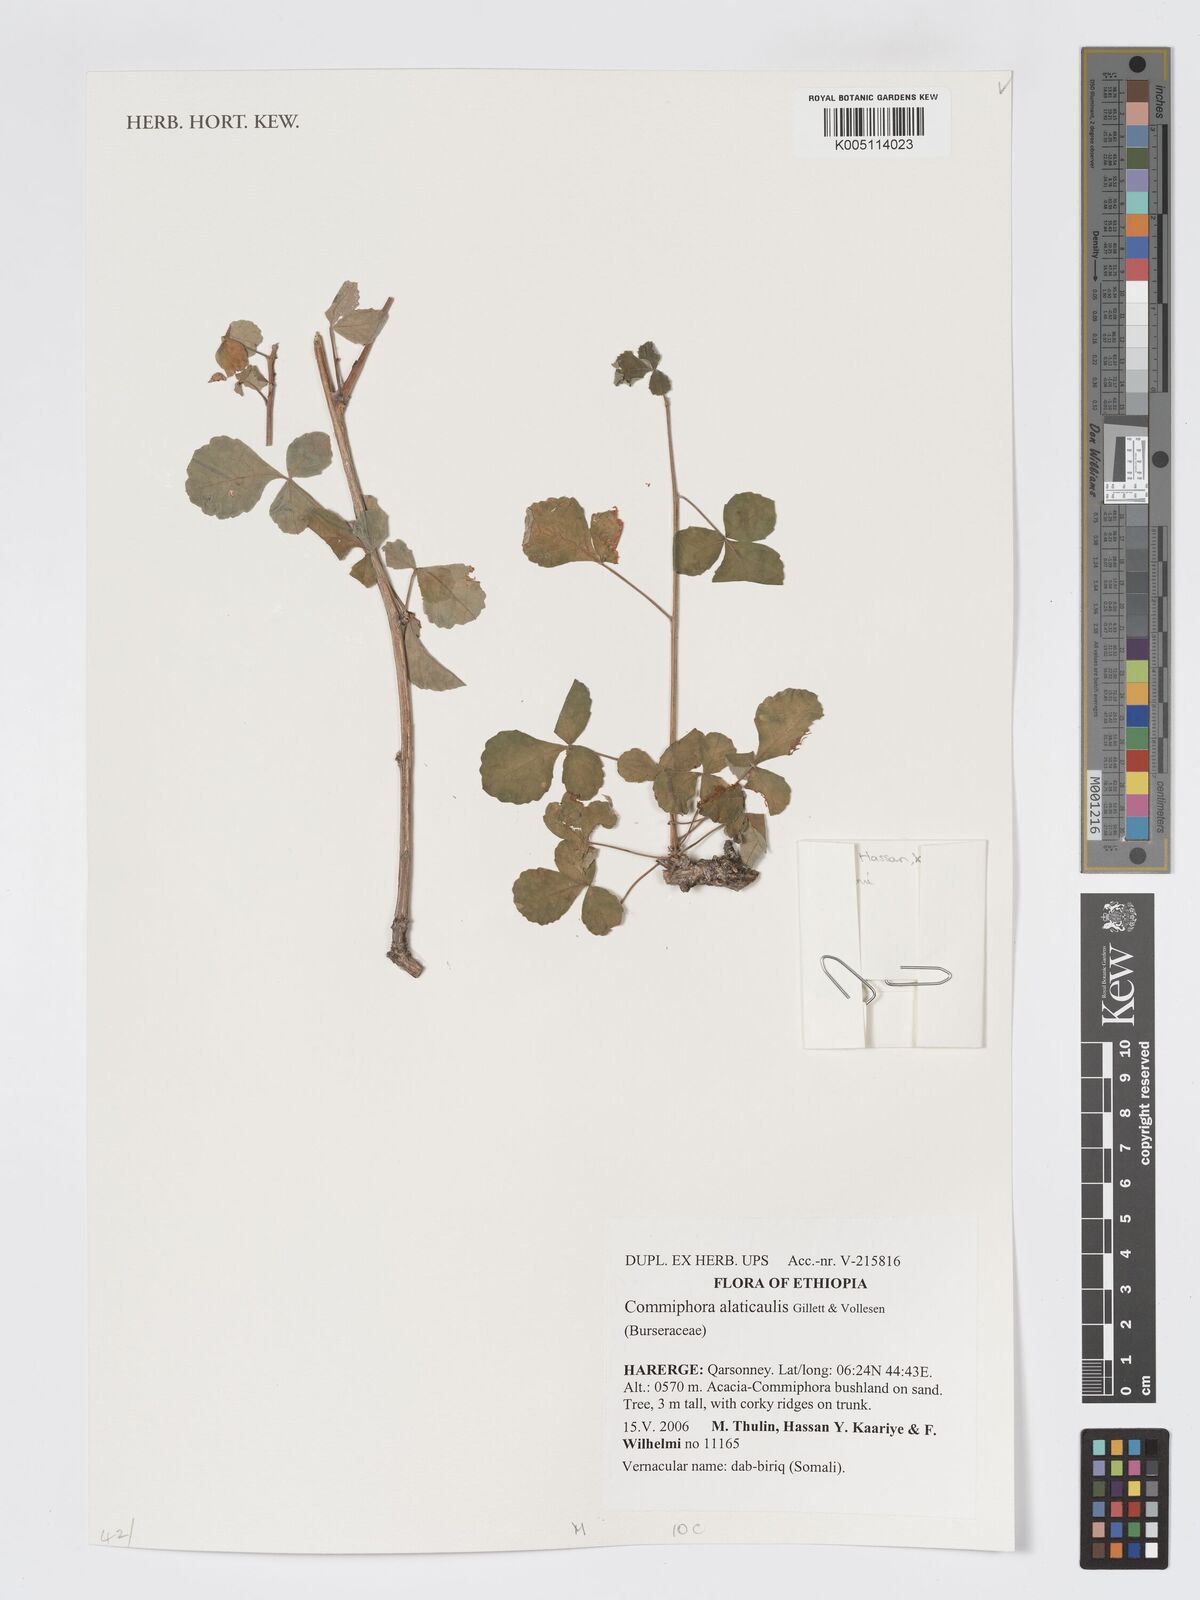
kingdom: Plantae
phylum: Tracheophyta
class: Magnoliopsida
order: Sapindales
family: Burseraceae
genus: Commiphora
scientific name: Commiphora alaticaulis
